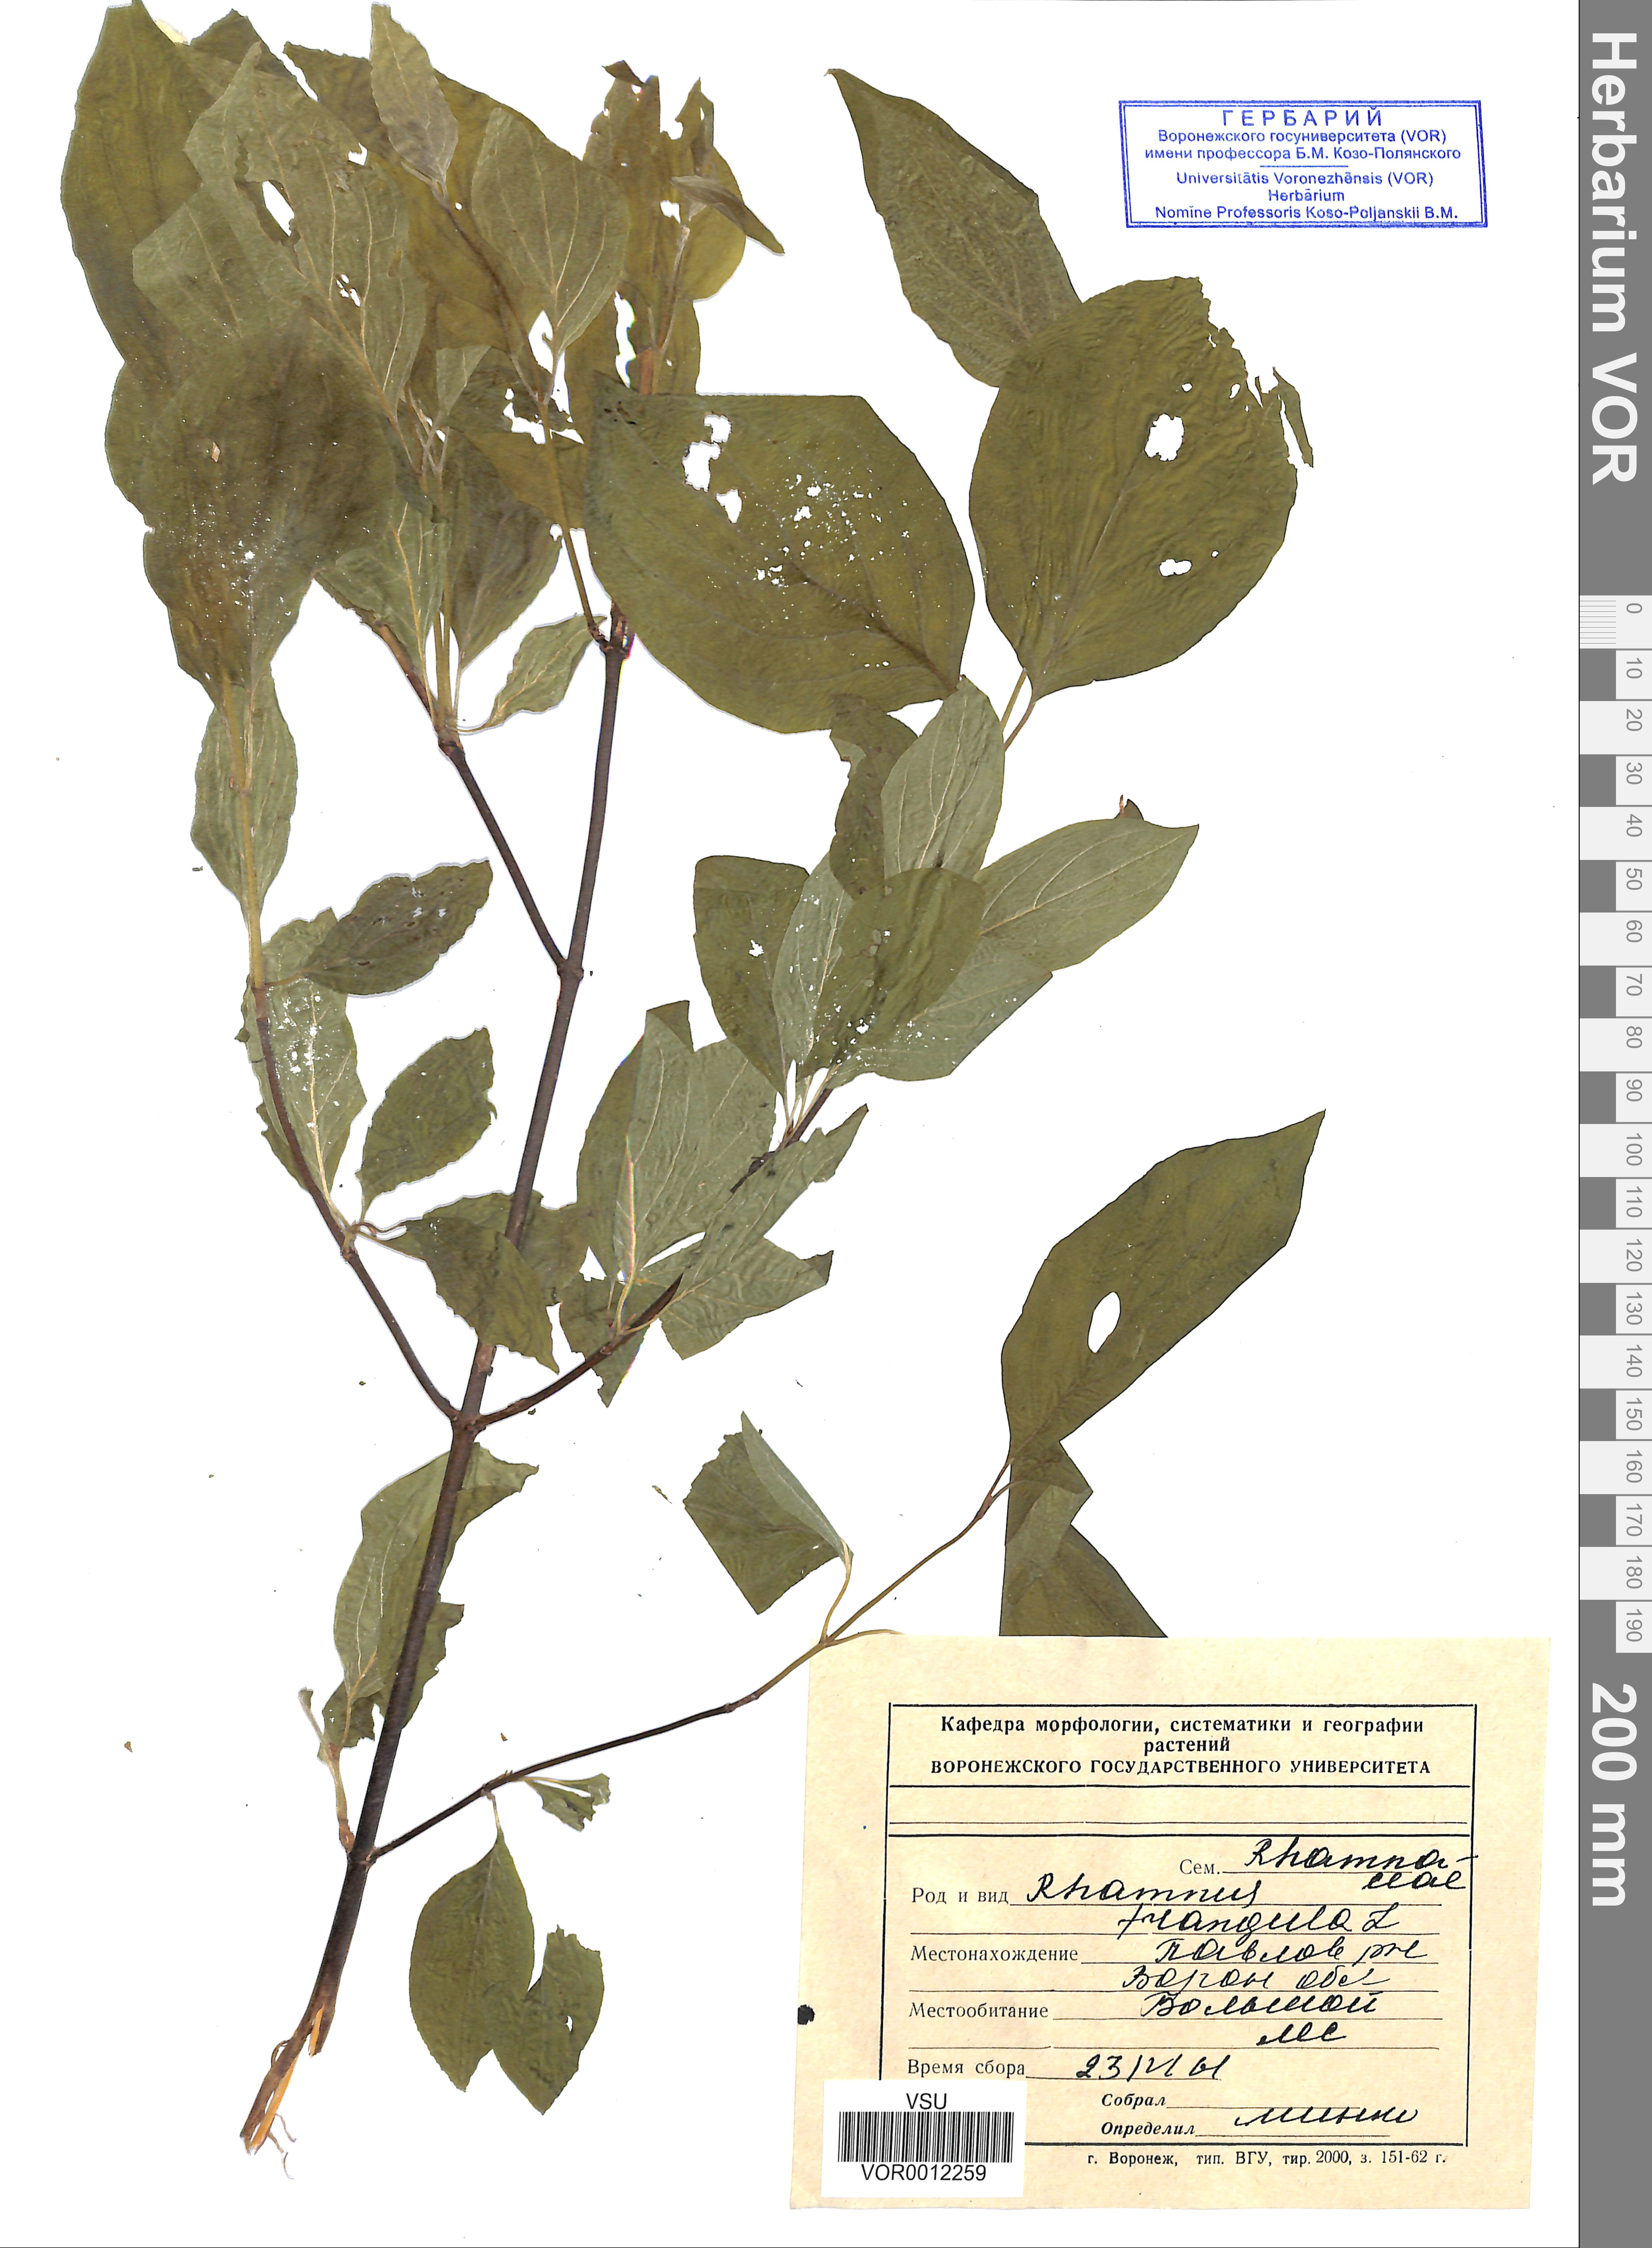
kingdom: Plantae
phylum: Tracheophyta
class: Magnoliopsida
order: Rosales
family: Rhamnaceae
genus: Frangula
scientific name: Frangula alnus
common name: Alder buckthorn
